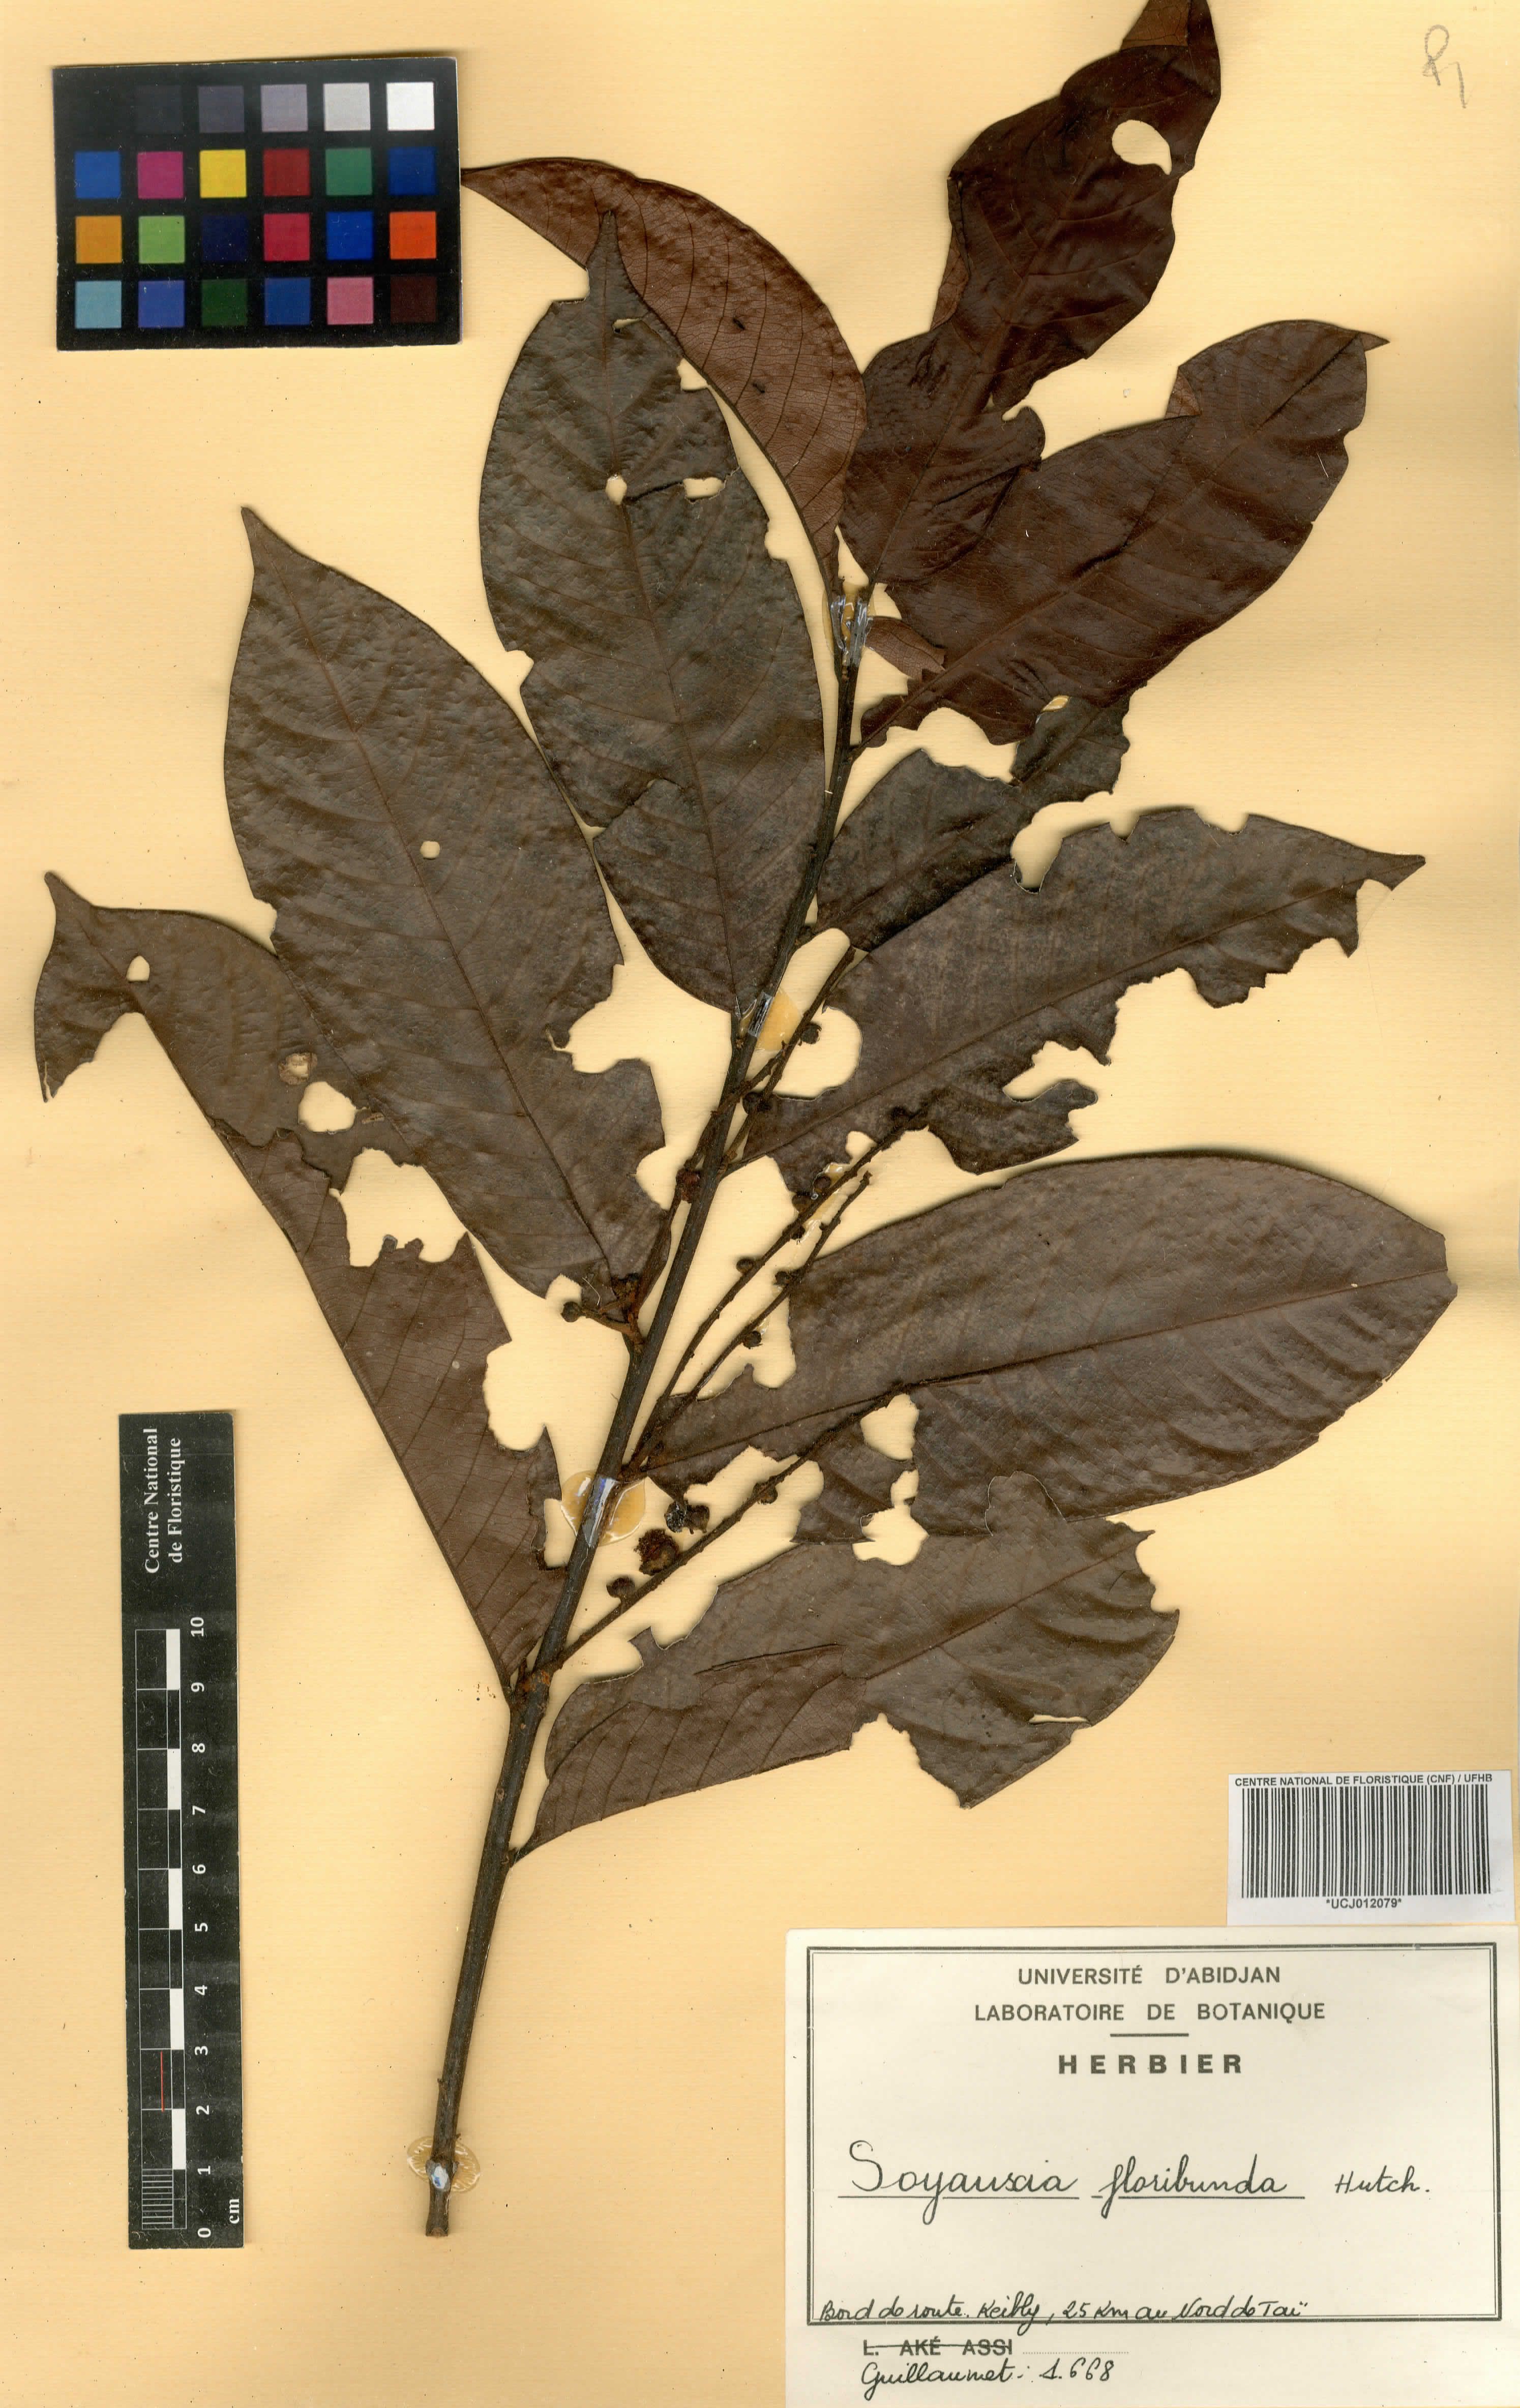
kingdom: Plantae
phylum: Tracheophyta
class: Magnoliopsida
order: Saxifragales
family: Peridiscaceae
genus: Soyauxia
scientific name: Soyauxia floribunda
